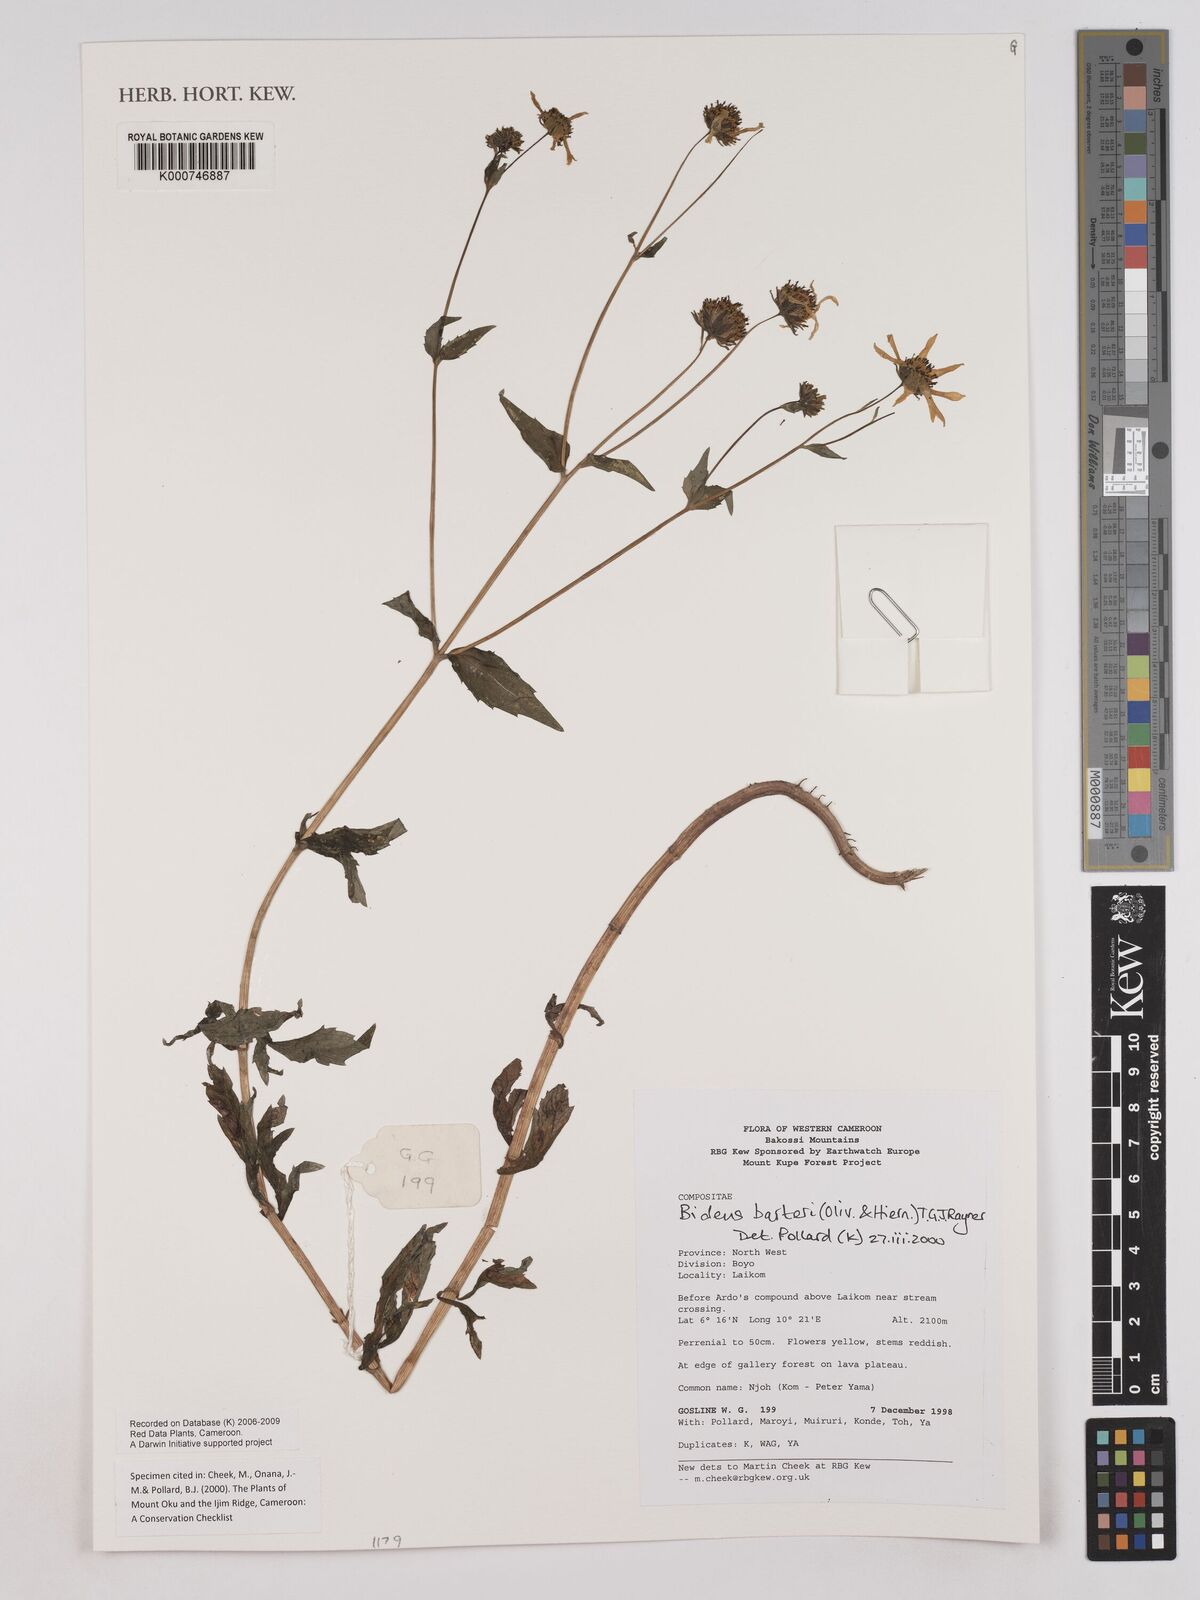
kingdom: Plantae
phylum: Tracheophyta
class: Magnoliopsida
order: Asterales
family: Asteraceae
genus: Bidens
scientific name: Bidens barteri
